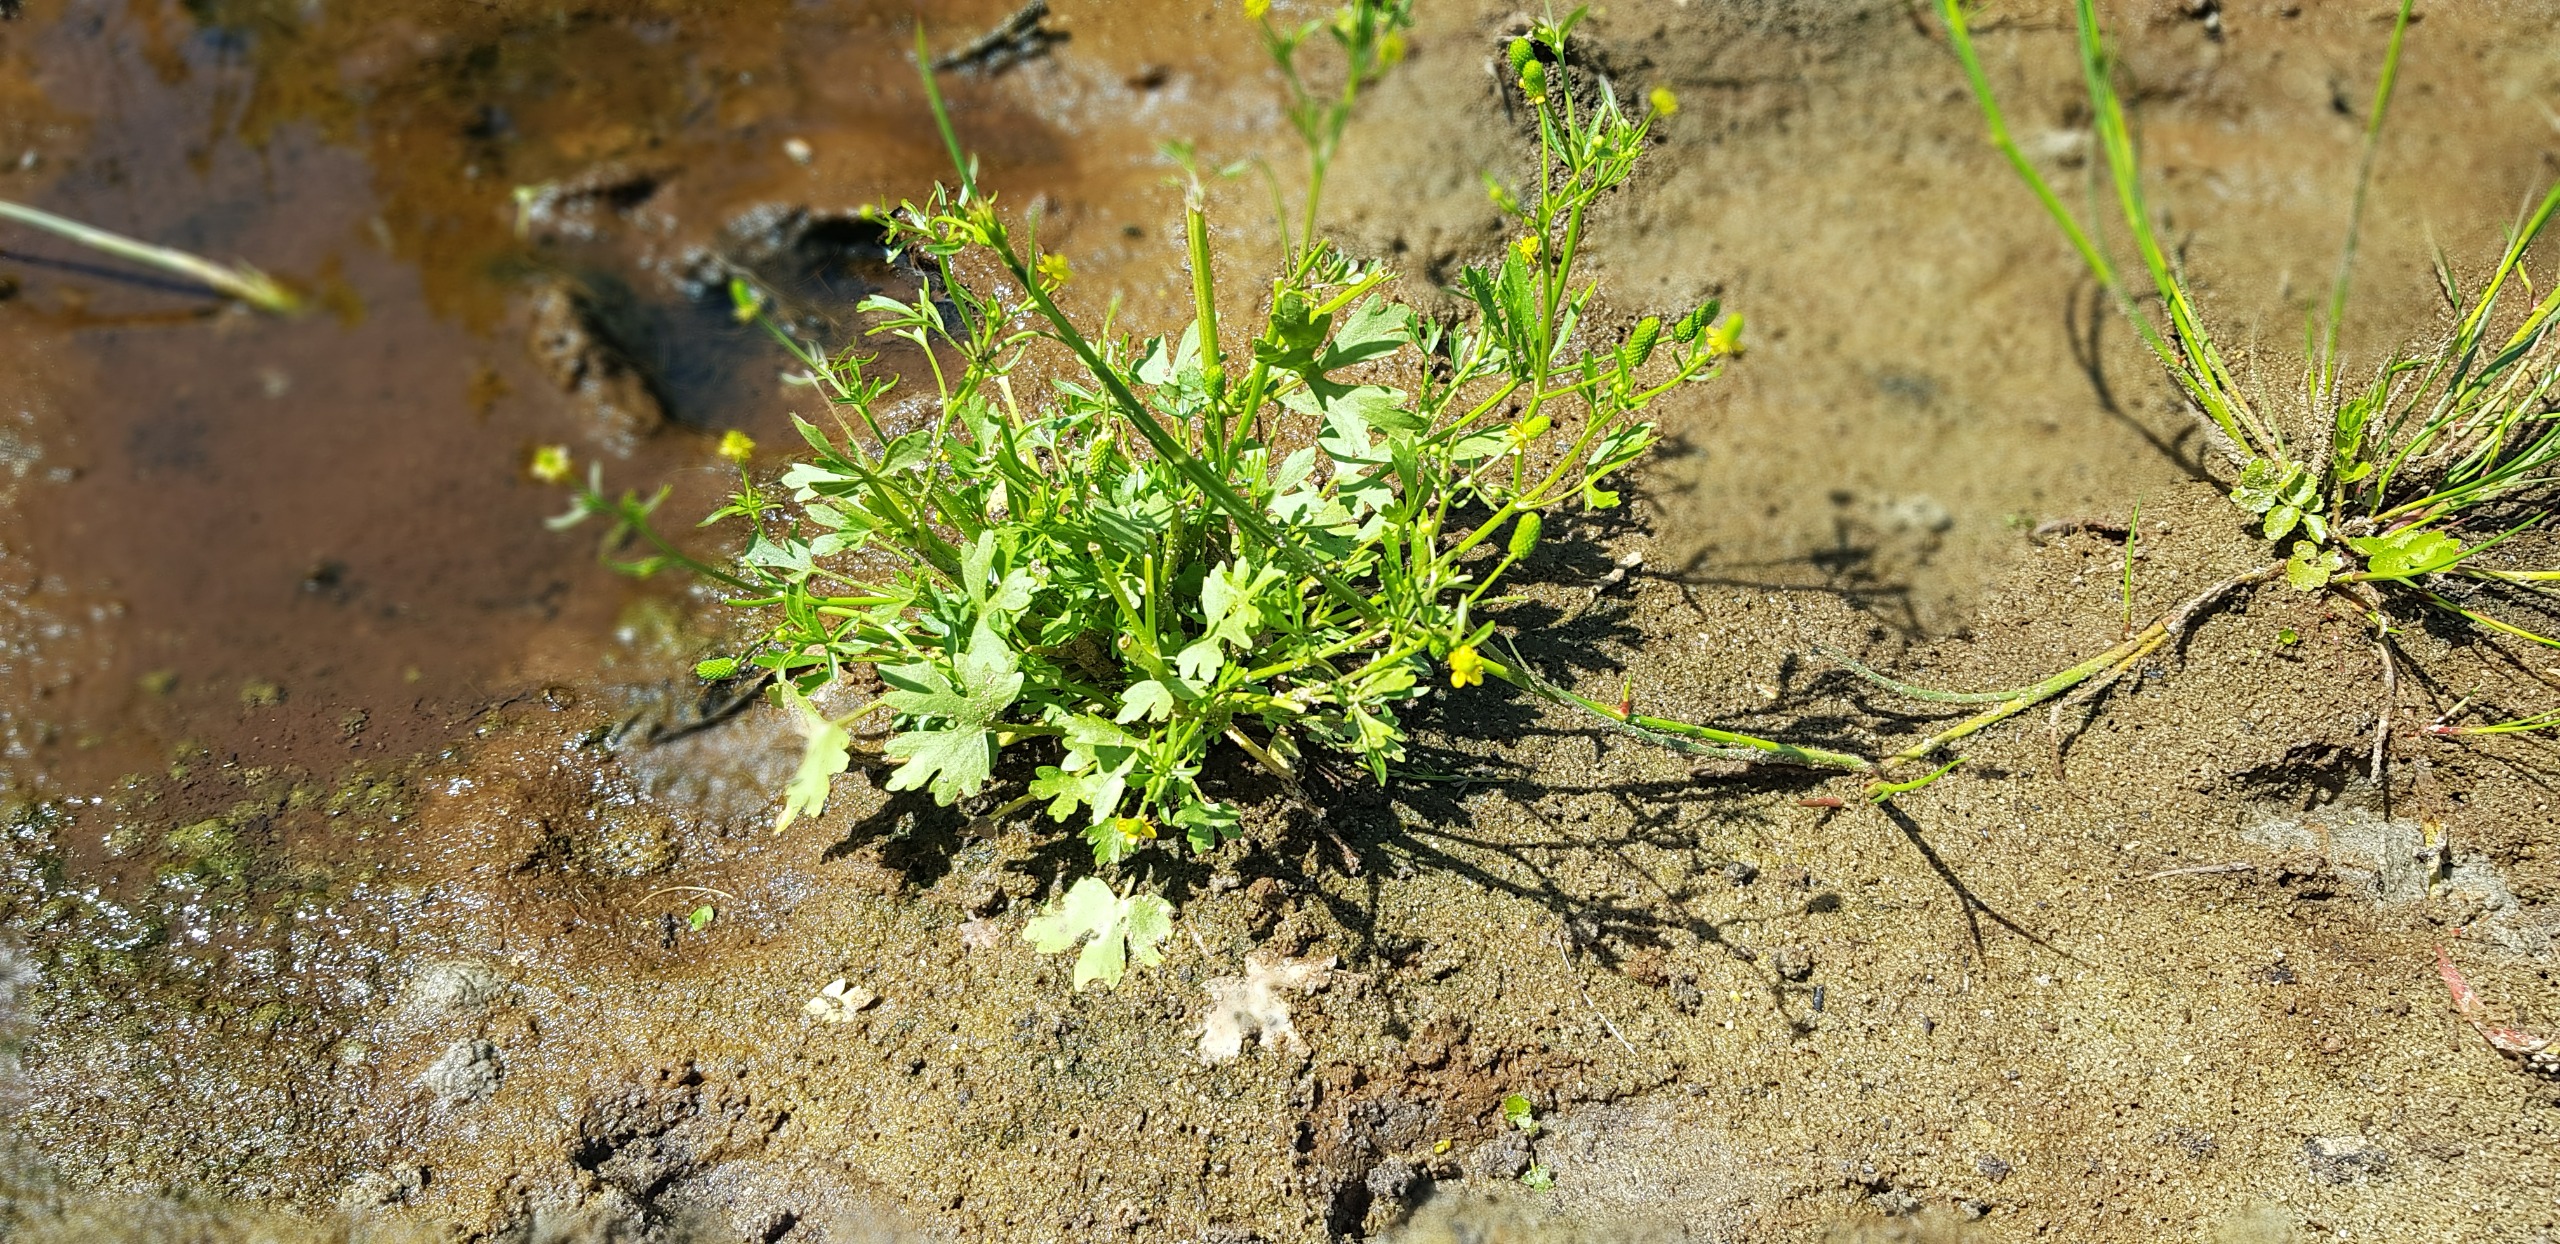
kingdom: Plantae
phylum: Tracheophyta
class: Magnoliopsida
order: Ranunculales
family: Ranunculaceae
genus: Ranunculus
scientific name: Ranunculus sceleratus
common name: Tigger-ranunkel
